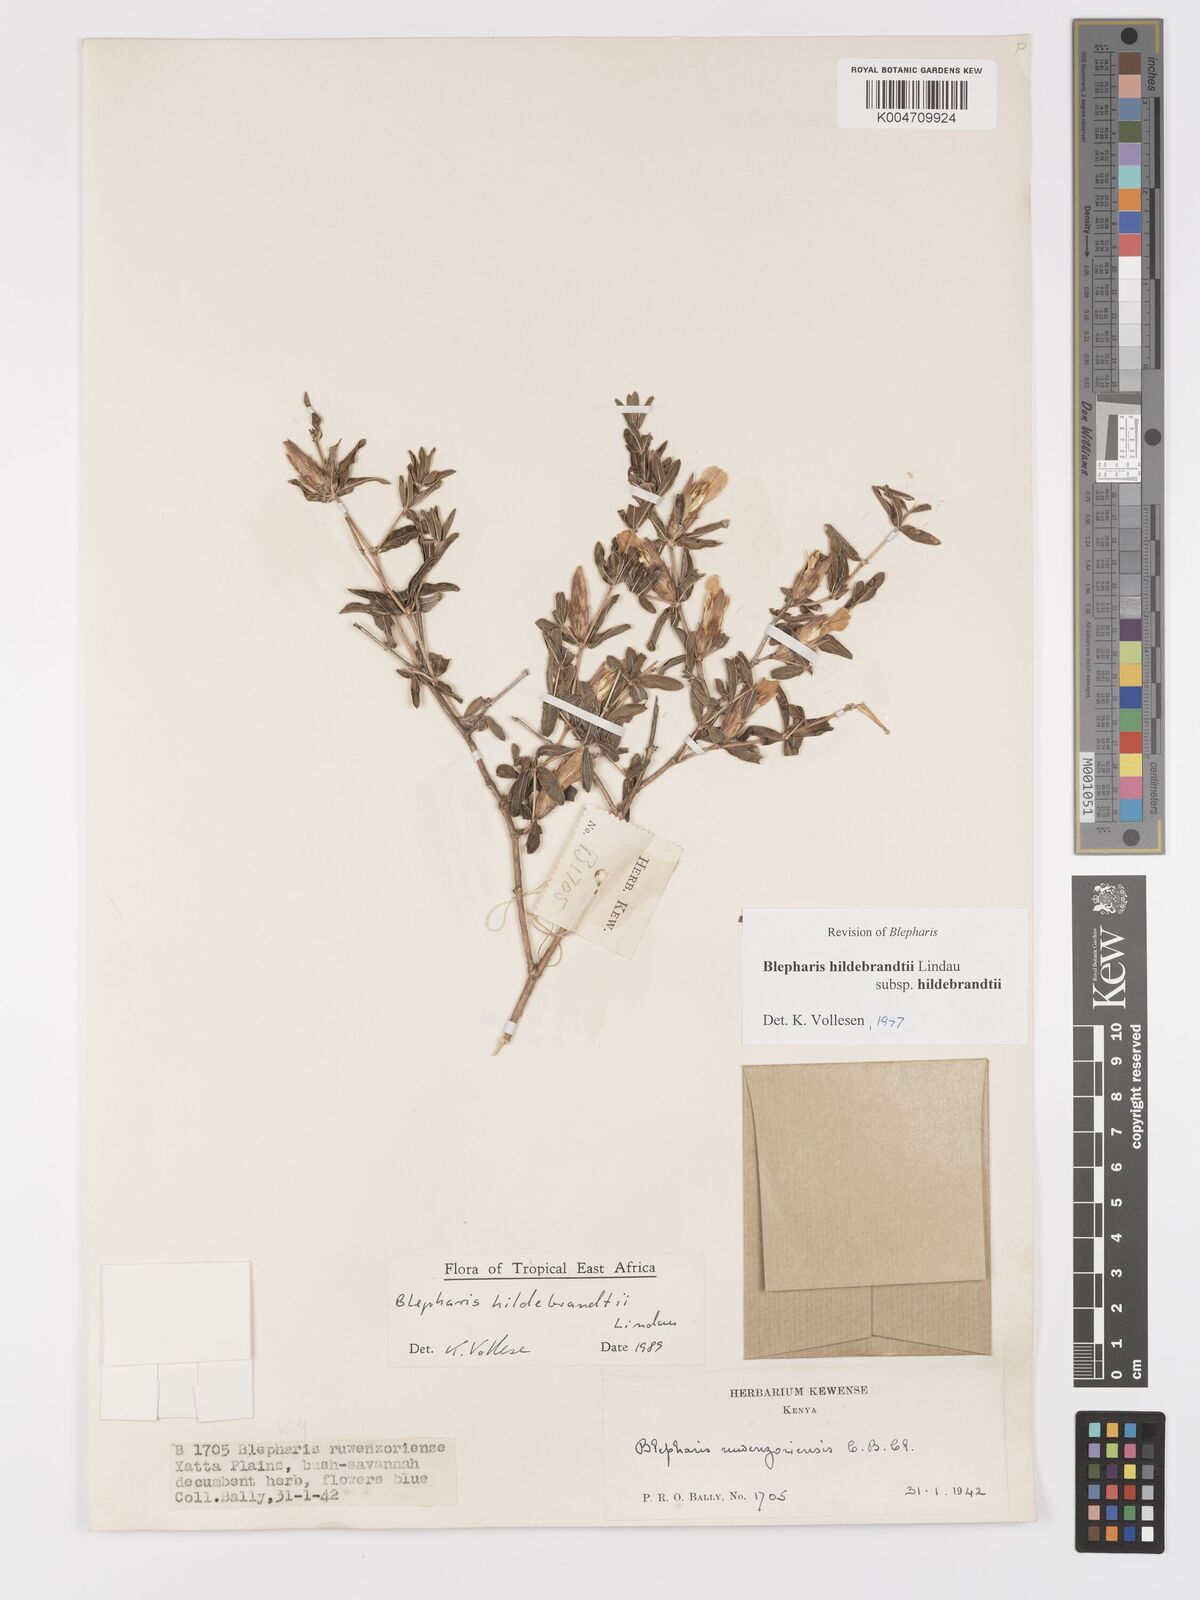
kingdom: Plantae
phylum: Tracheophyta
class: Magnoliopsida
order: Lamiales
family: Acanthaceae
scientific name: Acanthaceae
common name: Acanthaceae
